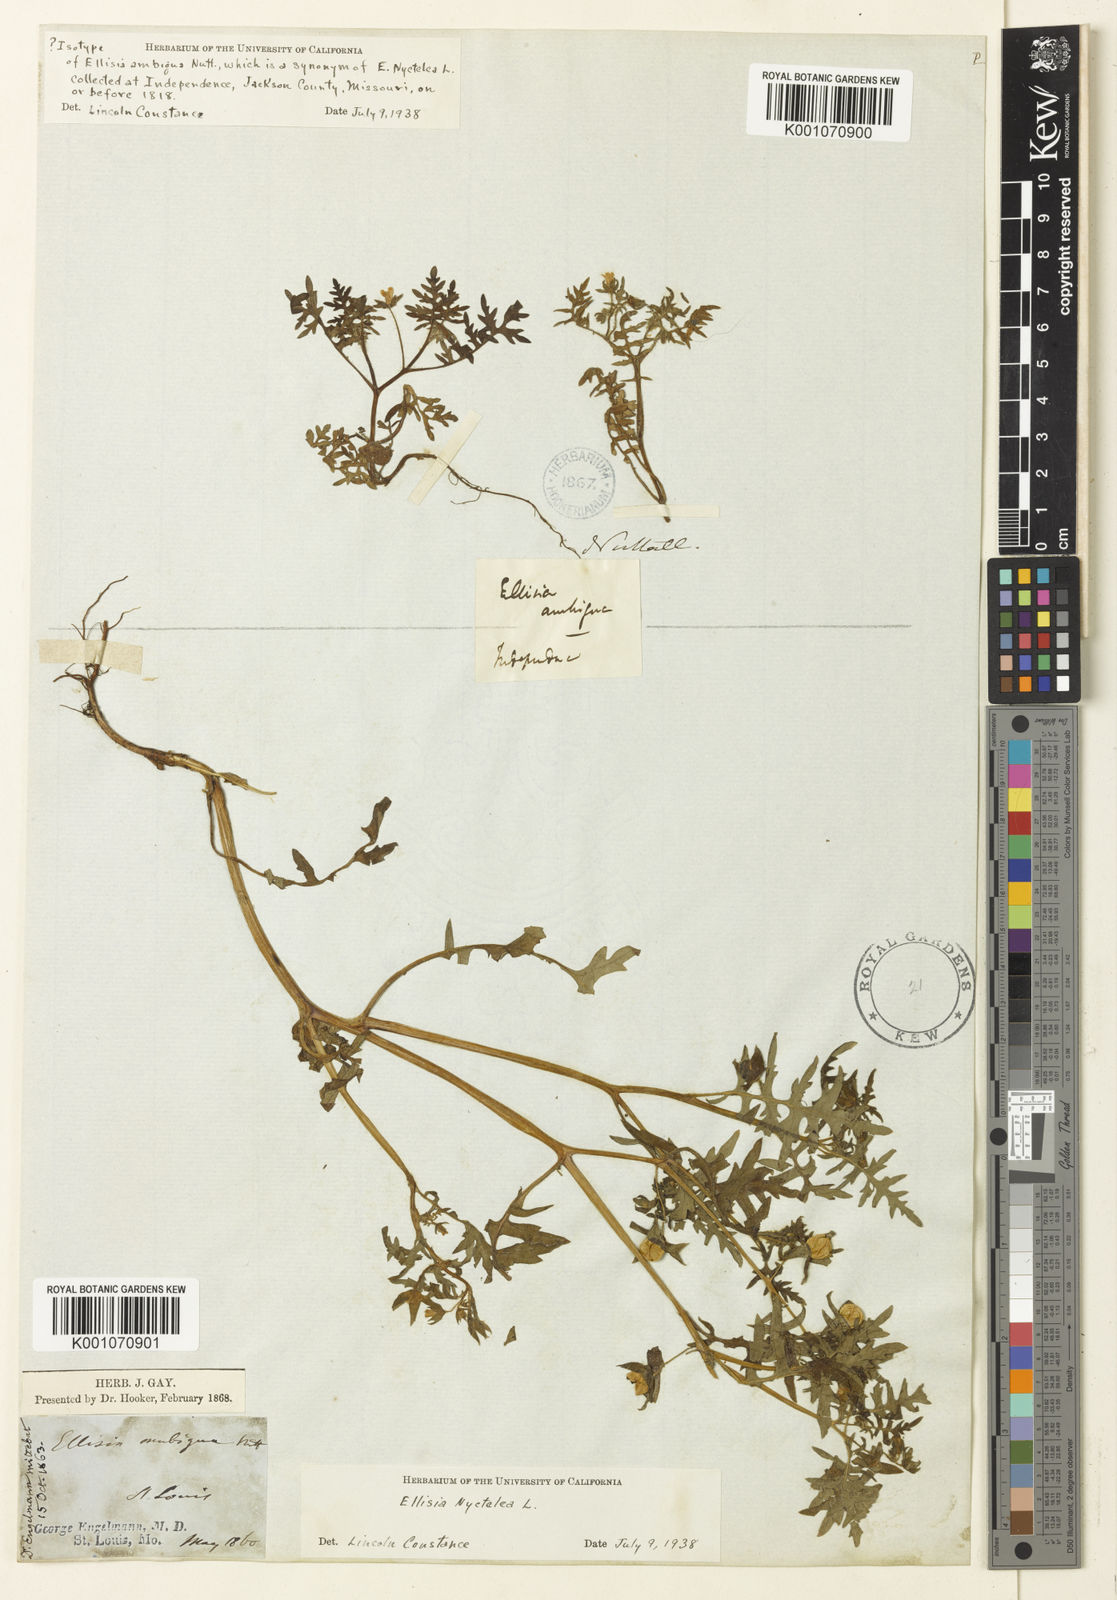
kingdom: Plantae
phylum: Tracheophyta
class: Magnoliopsida
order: Boraginales
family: Hydrophyllaceae
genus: Ellisia
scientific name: Ellisia nyctelea
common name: Aunt lucy
